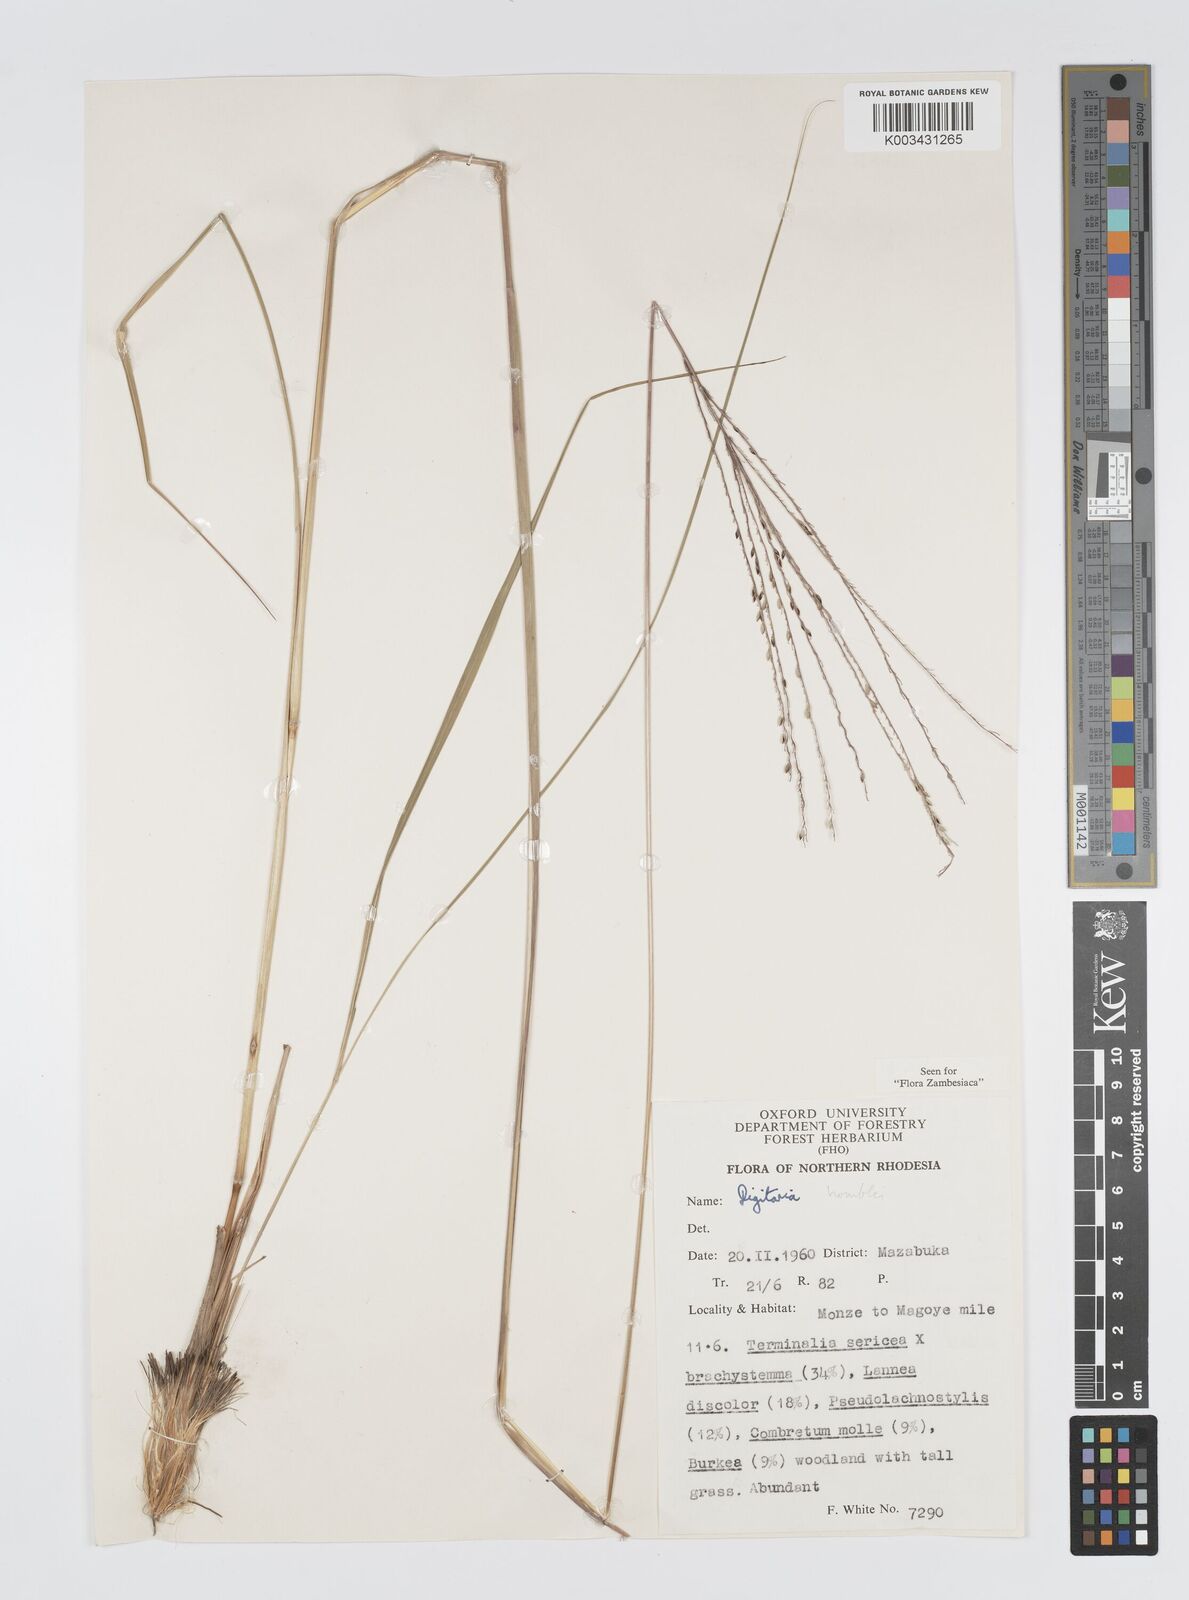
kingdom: Plantae
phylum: Tracheophyta
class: Liliopsida
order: Poales
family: Poaceae
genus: Digitaria
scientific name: Digitaria compressa
